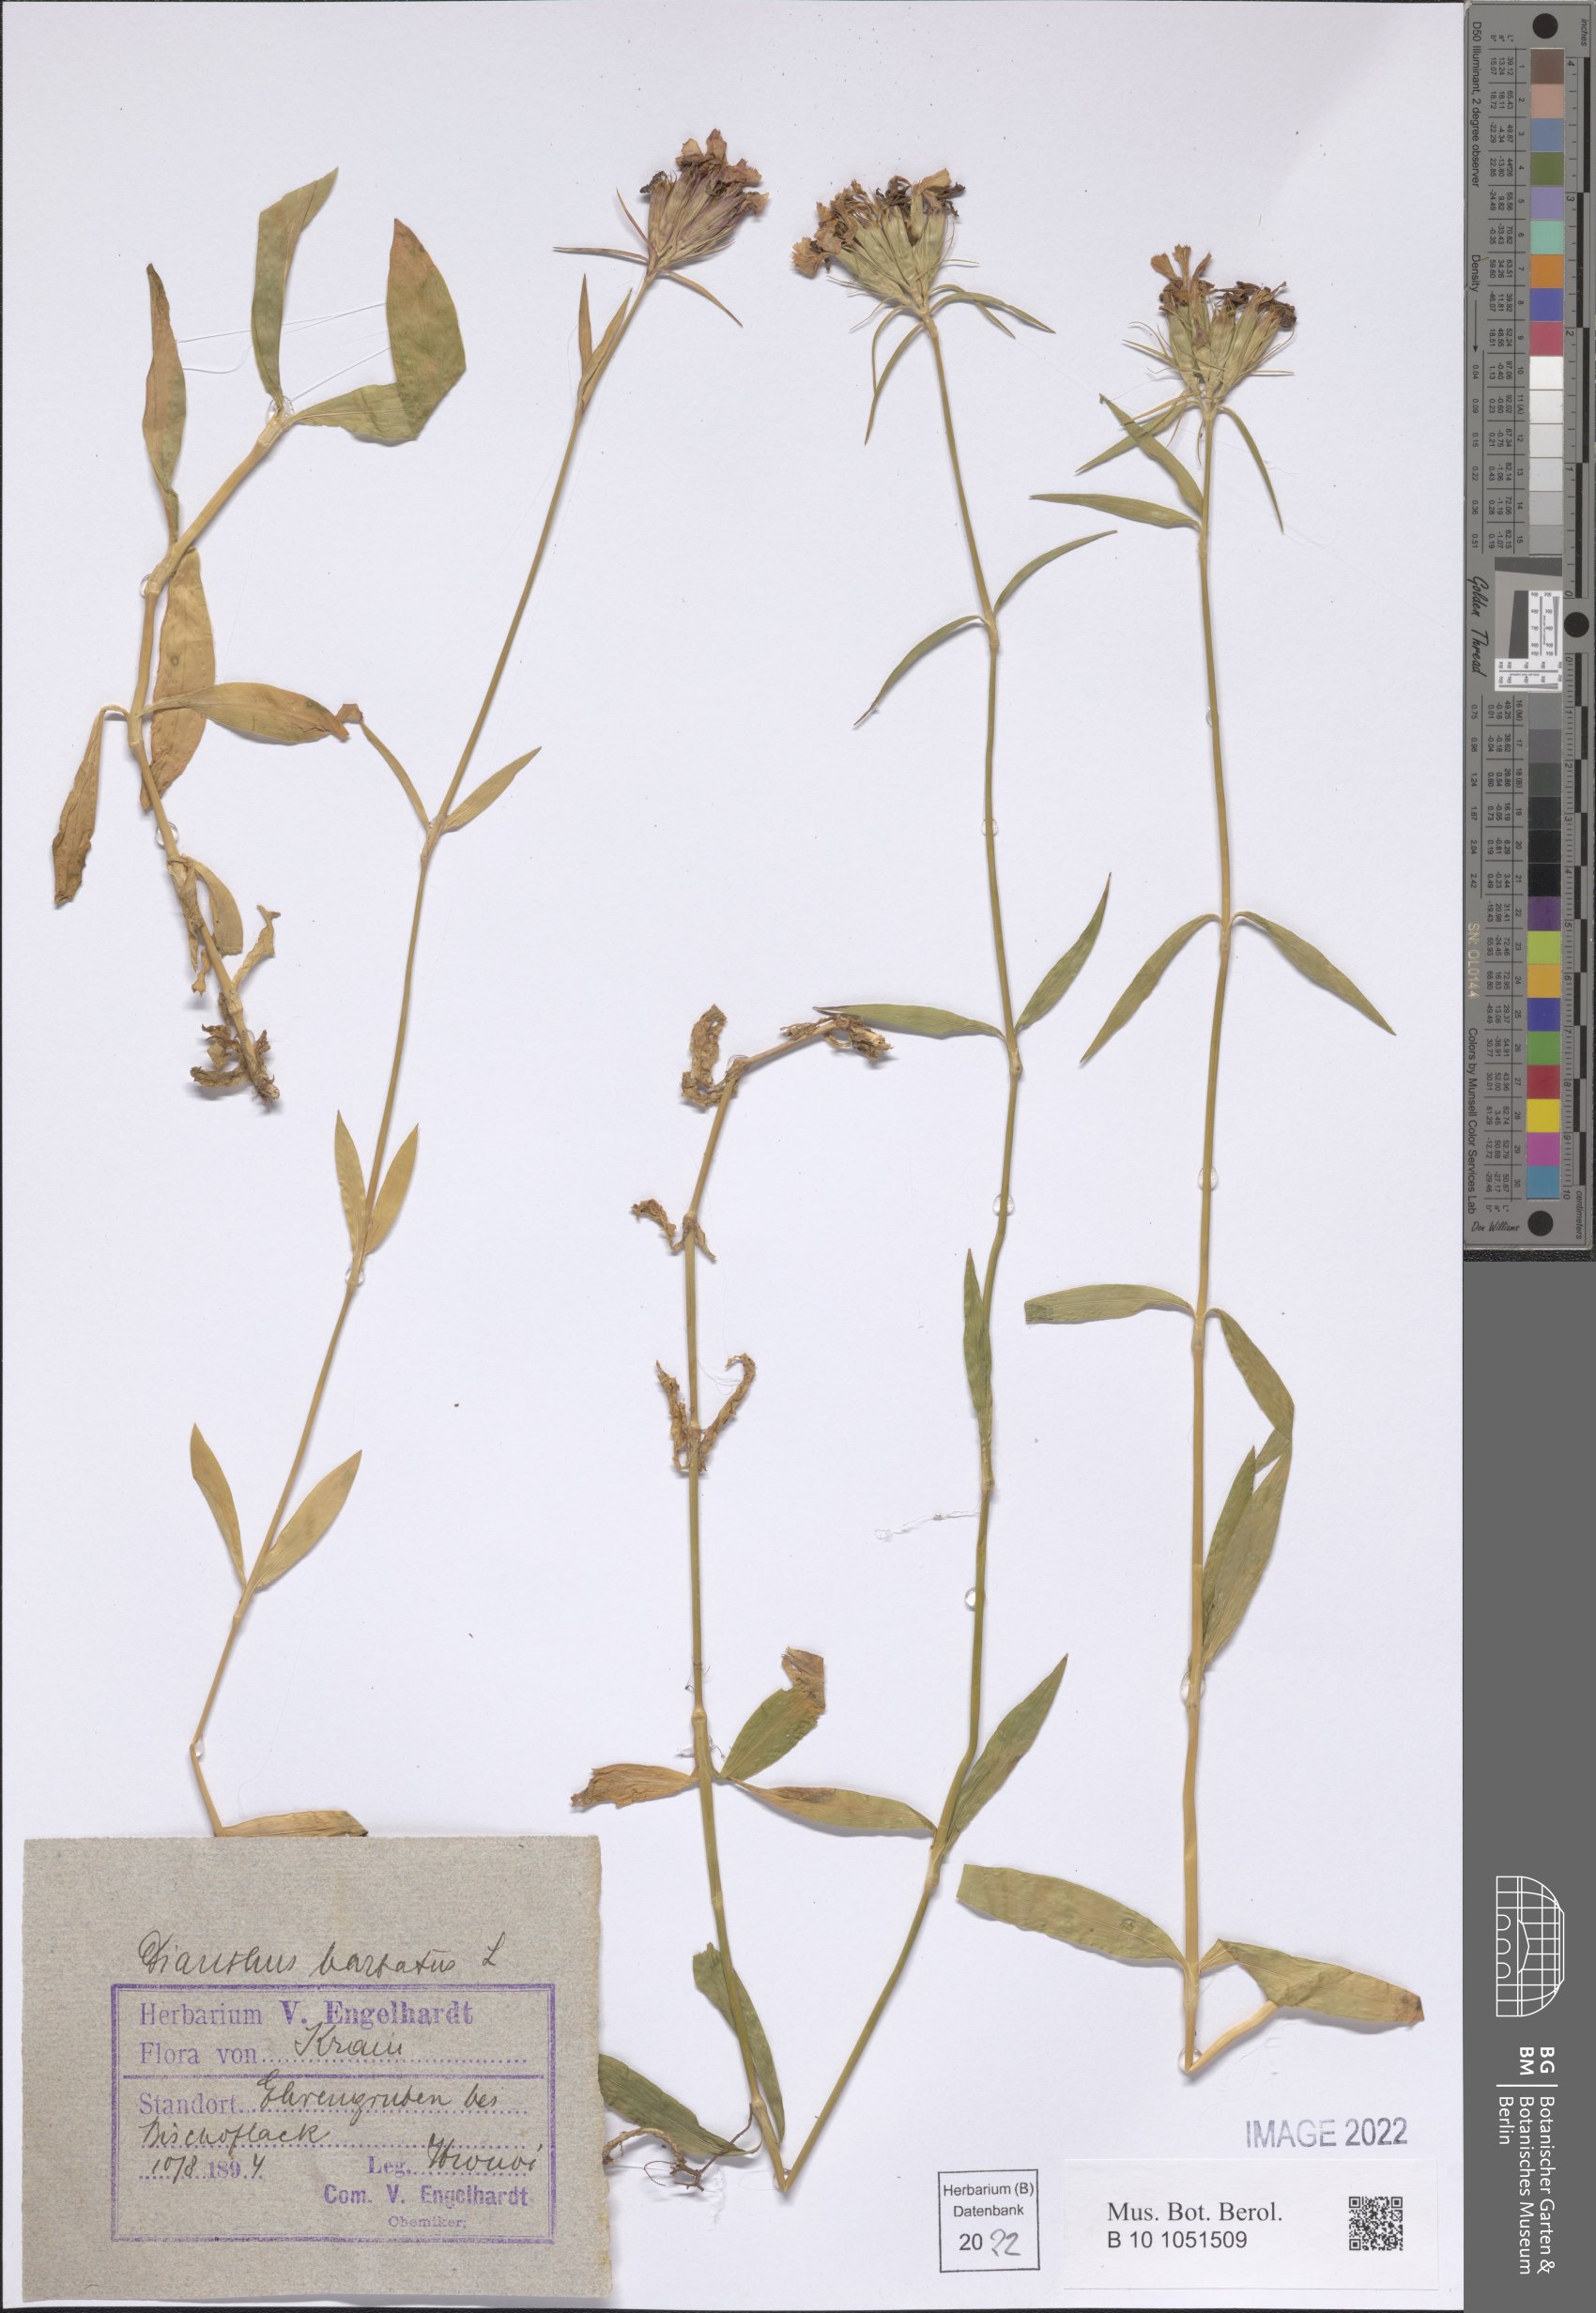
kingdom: Plantae
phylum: Tracheophyta
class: Magnoliopsida
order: Caryophyllales
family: Caryophyllaceae
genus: Dianthus
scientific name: Dianthus barbatus
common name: Sweet-william
